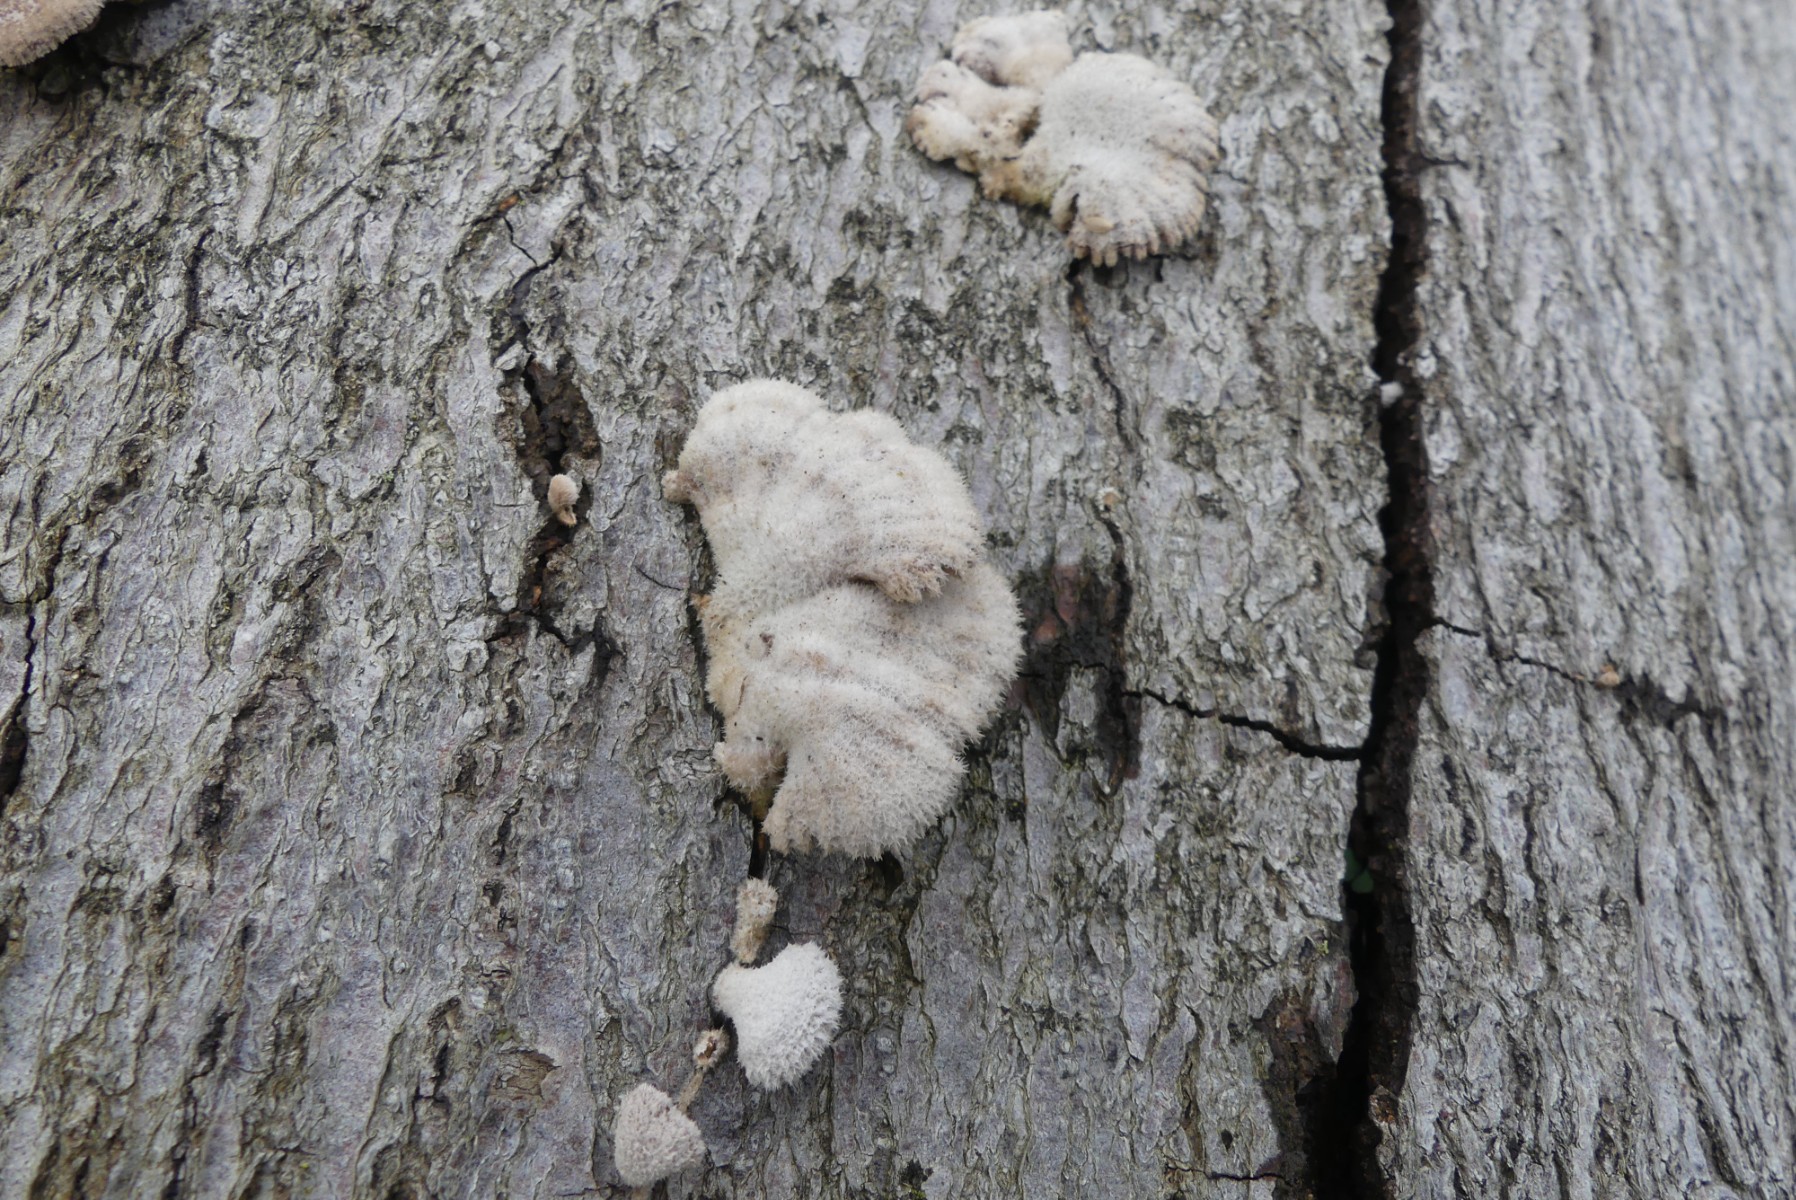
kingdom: Fungi
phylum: Basidiomycota
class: Agaricomycetes
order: Agaricales
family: Schizophyllaceae
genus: Schizophyllum
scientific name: Schizophyllum commune
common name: kløvblad
